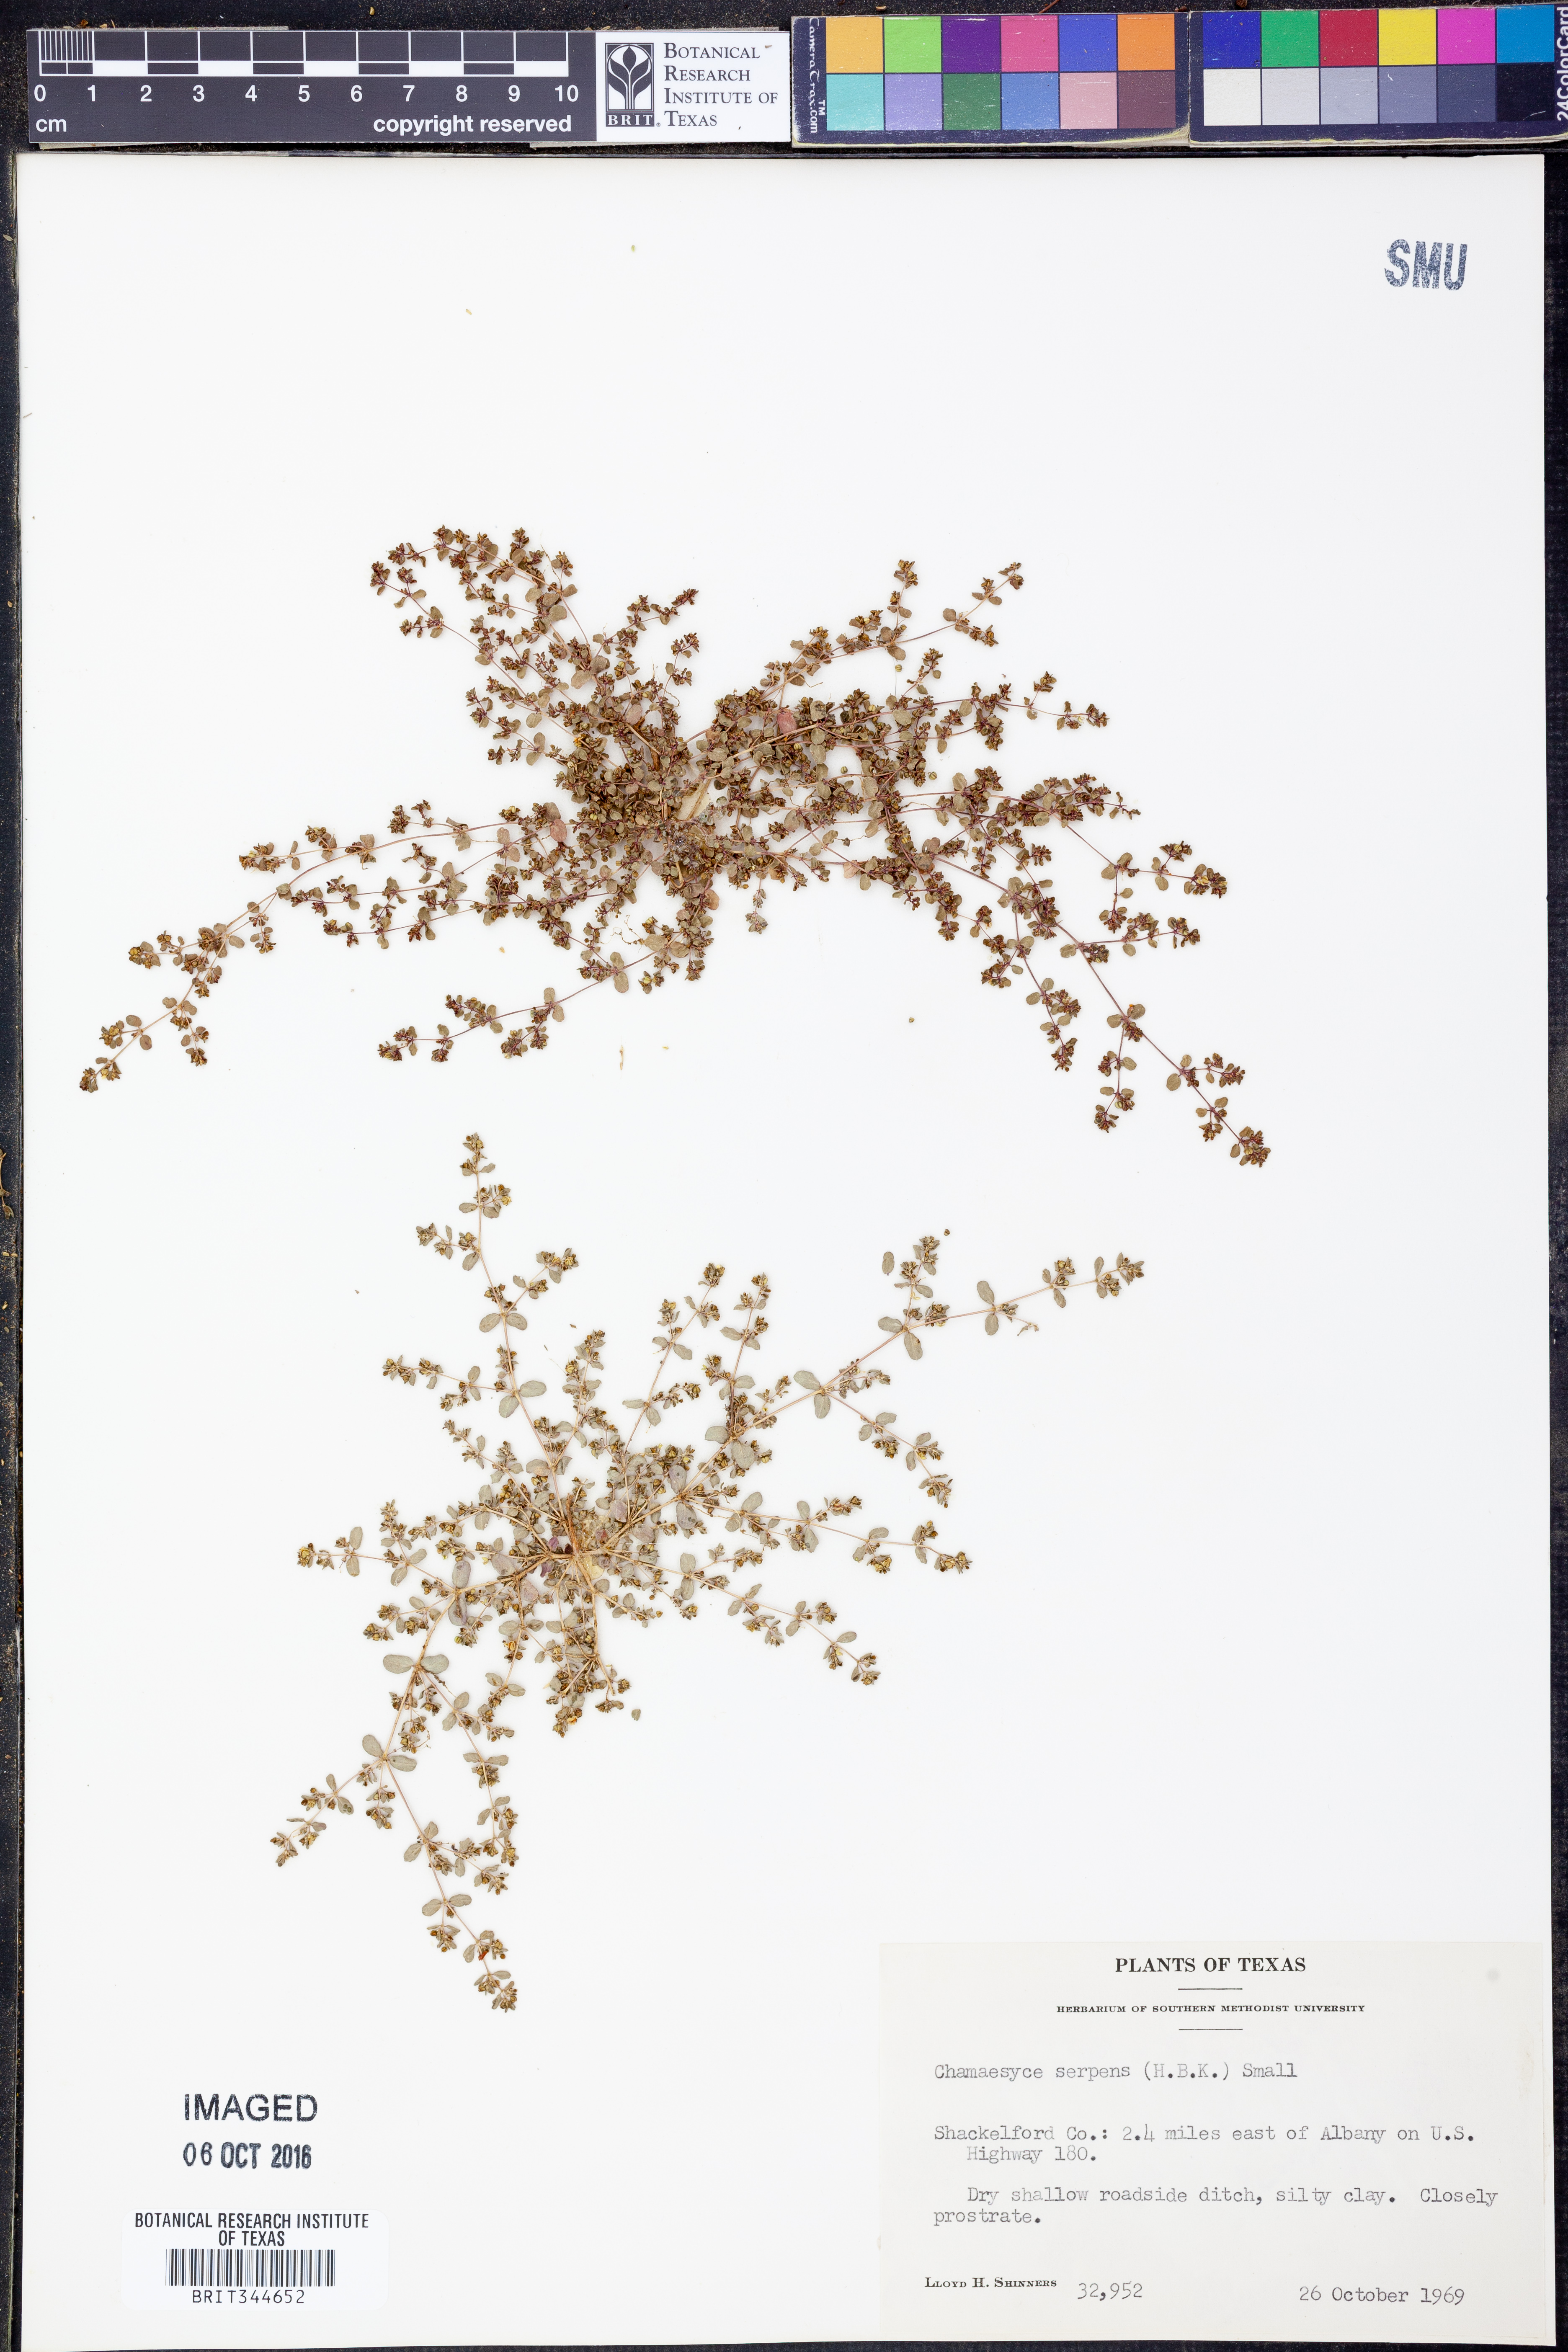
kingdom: Plantae
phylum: Tracheophyta
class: Magnoliopsida
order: Malpighiales
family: Euphorbiaceae
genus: Euphorbia
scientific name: Euphorbia serpens
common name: Matted sandmat
